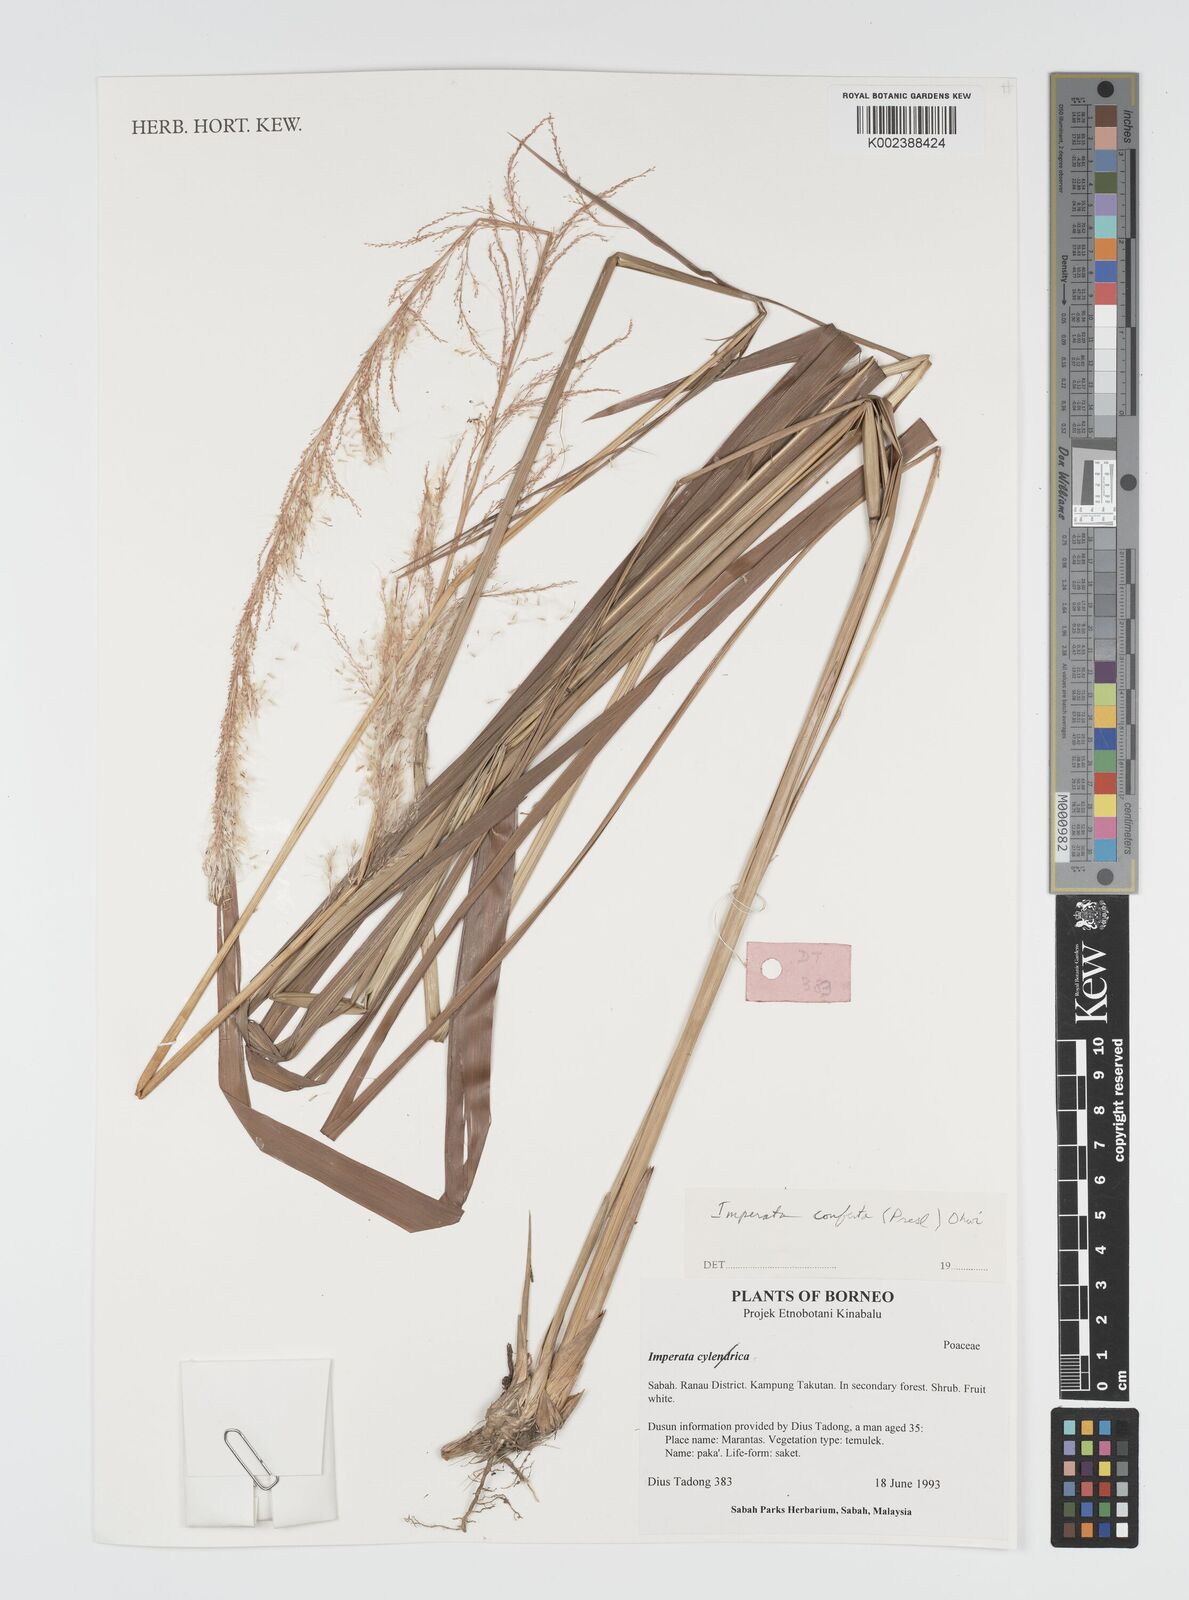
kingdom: Plantae
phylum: Tracheophyta
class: Liliopsida
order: Poales
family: Poaceae
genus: Imperata
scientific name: Imperata conferta
